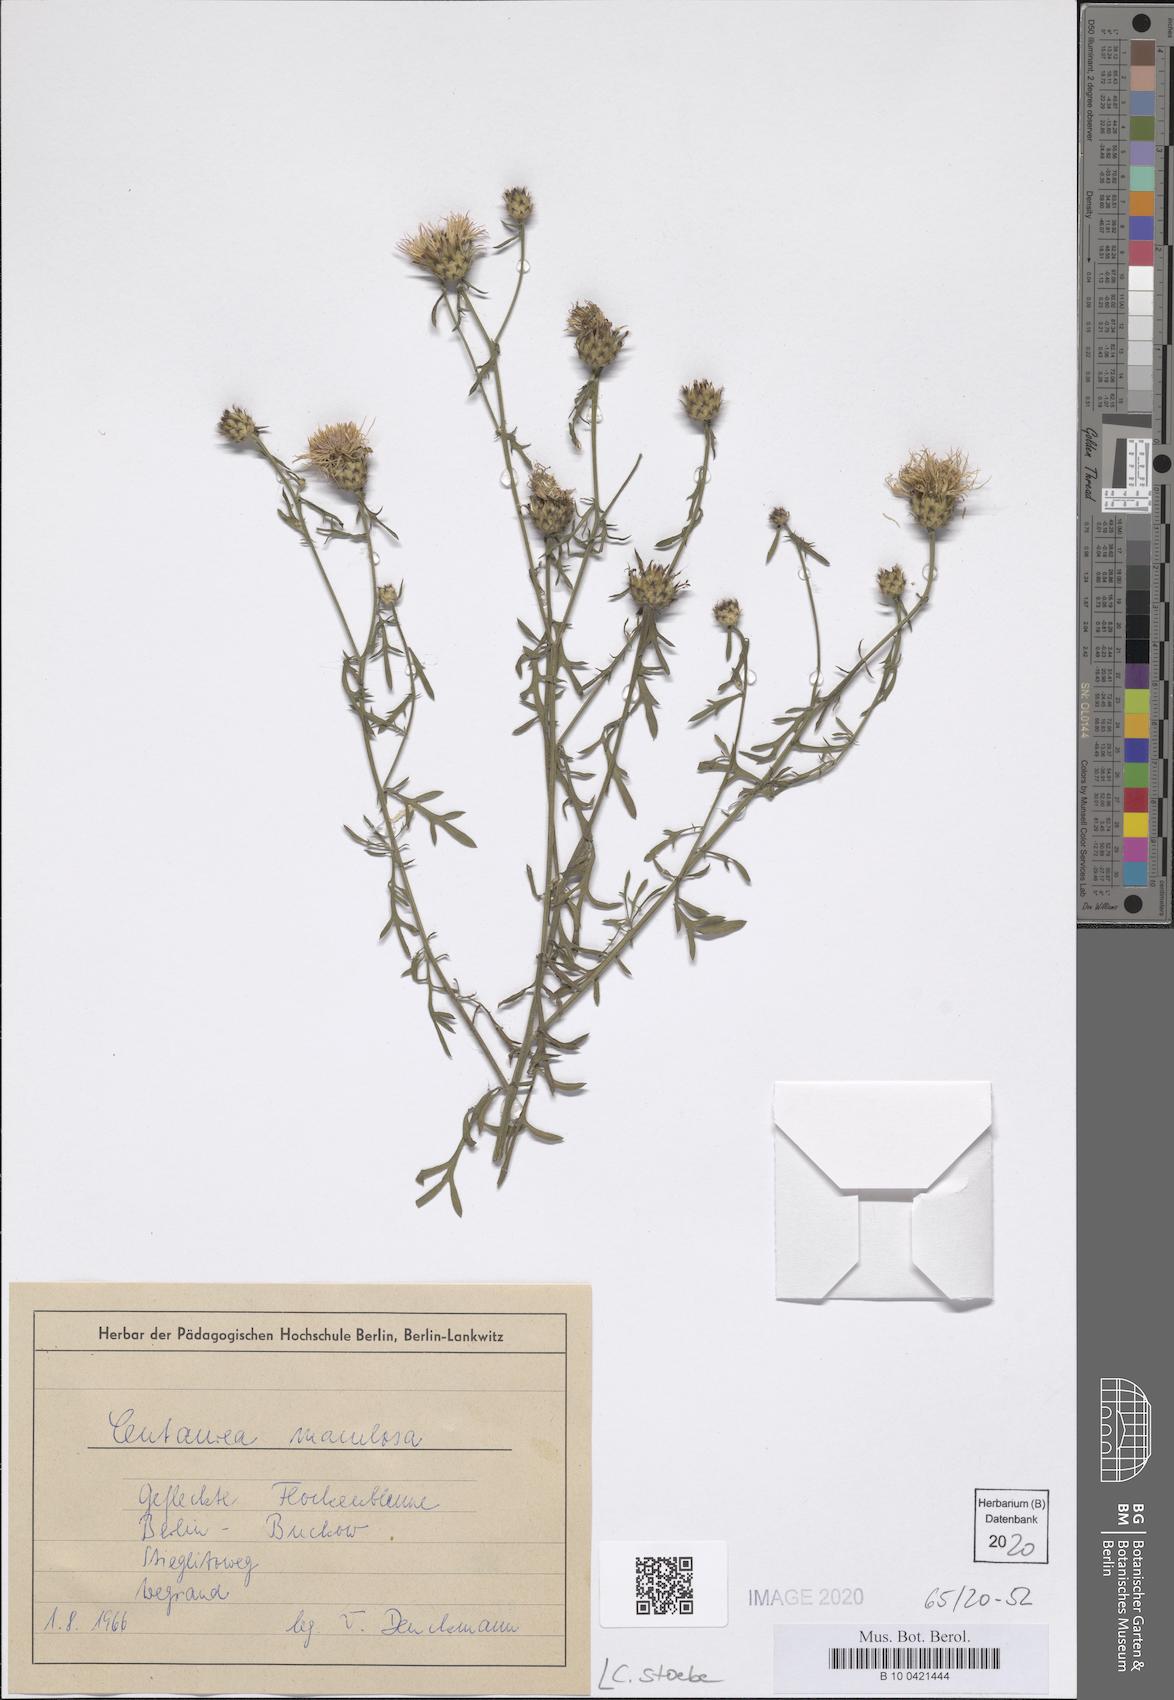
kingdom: Plantae
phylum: Tracheophyta
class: Magnoliopsida
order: Asterales
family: Asteraceae
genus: Centaurea
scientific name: Centaurea stoebe
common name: Spotted knapweed
